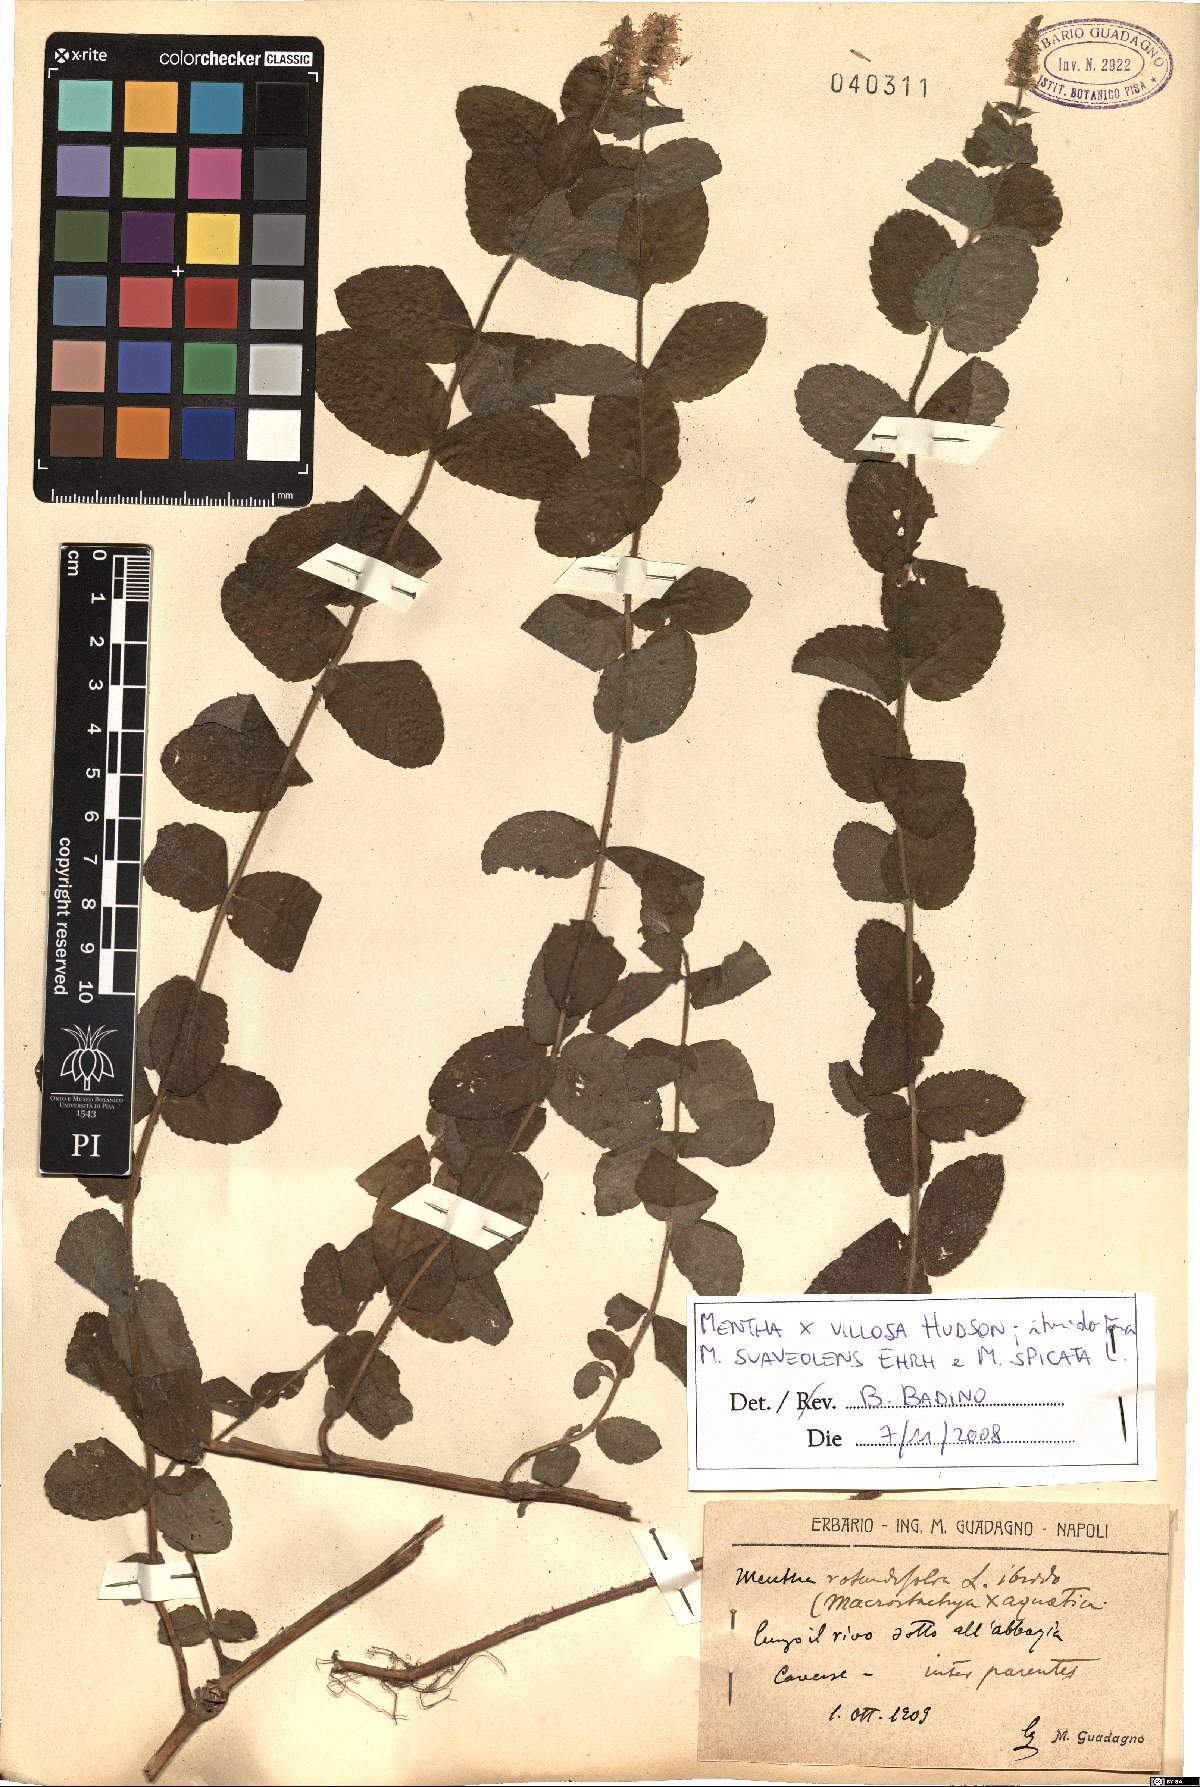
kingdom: Plantae
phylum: Tracheophyta
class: Magnoliopsida
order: Lamiales
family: Lamiaceae
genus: Mentha
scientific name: Mentha villosa
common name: Apple mint
